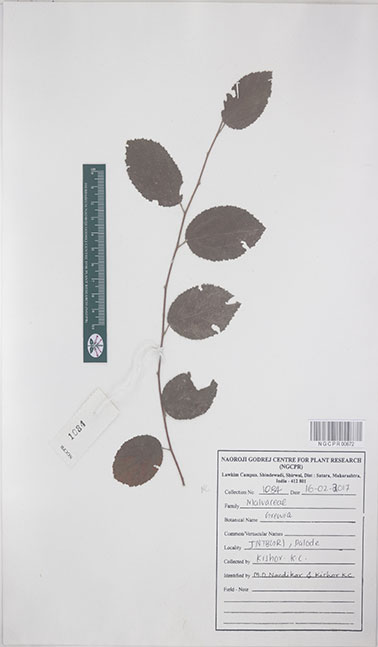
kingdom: Plantae
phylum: Tracheophyta
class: Magnoliopsida
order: Malvales
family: Malvaceae
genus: Grewia
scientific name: Grewia
